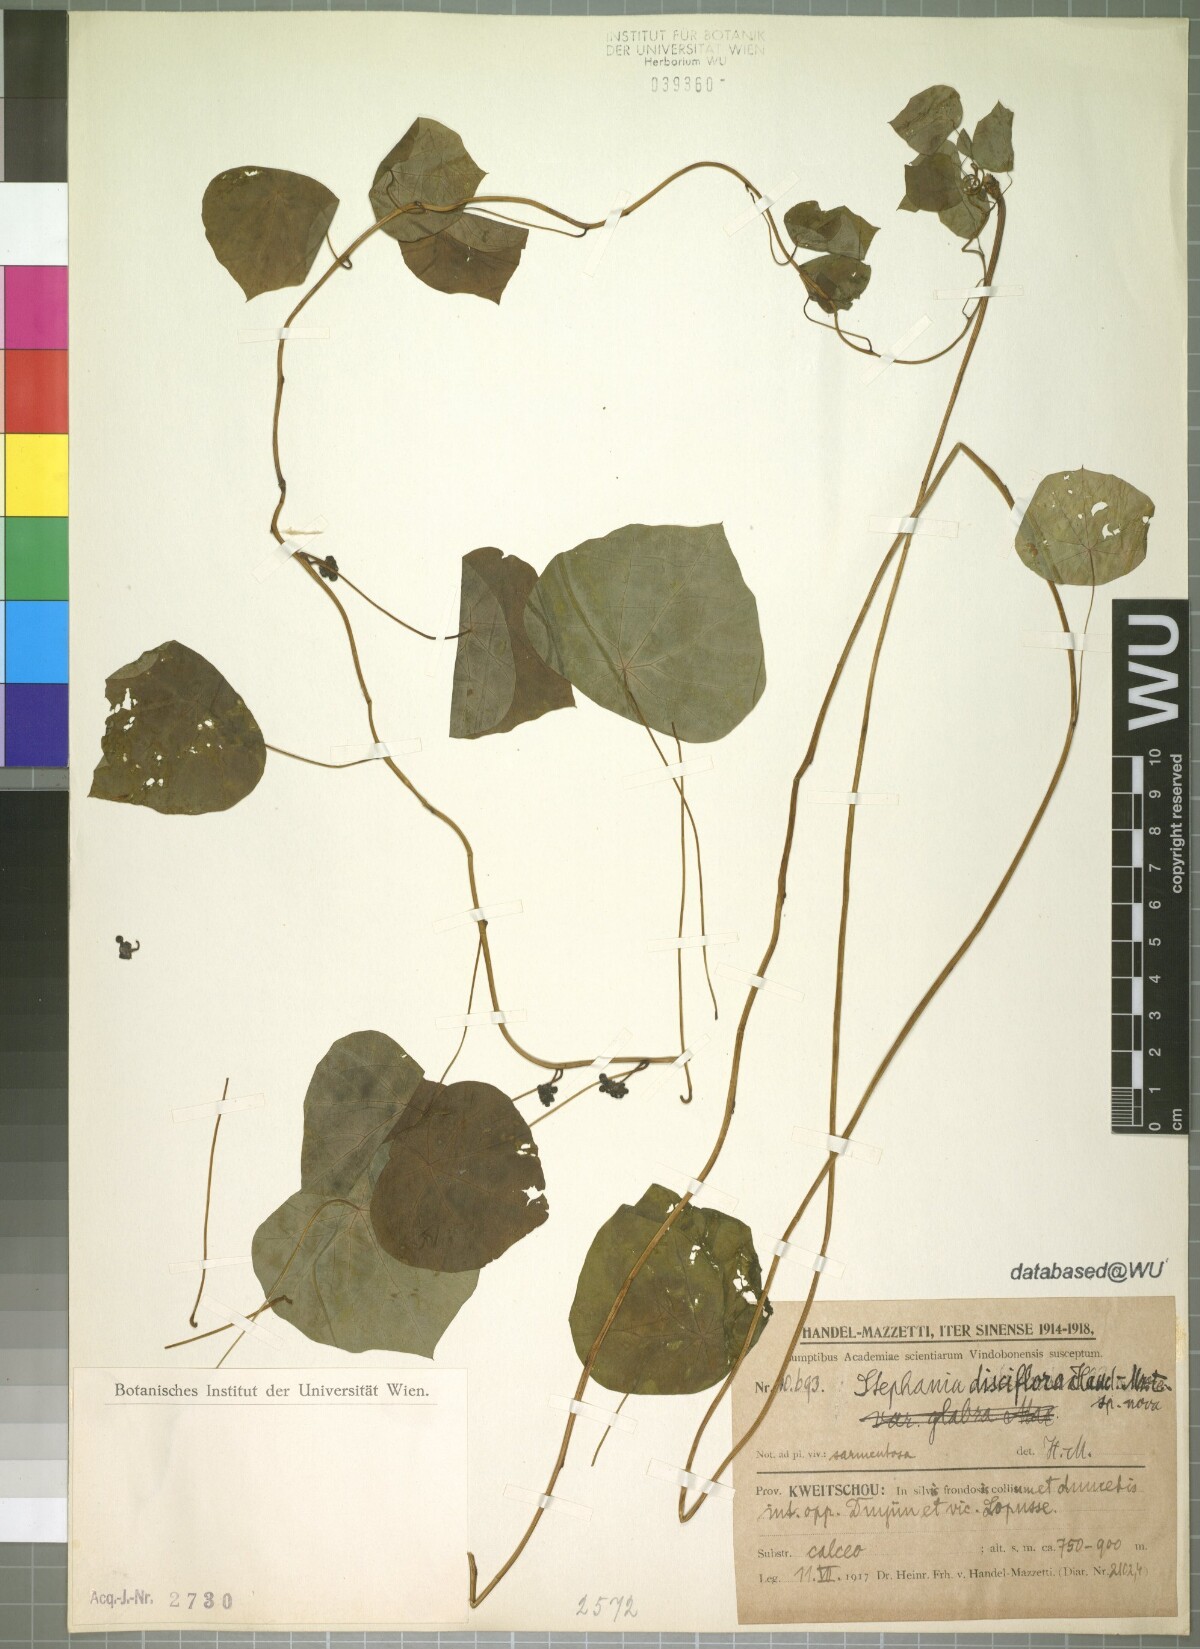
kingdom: Plantae
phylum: Tracheophyta
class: Magnoliopsida
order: Ranunculales
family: Menispermaceae
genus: Stephania
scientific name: Stephania cephalantha
